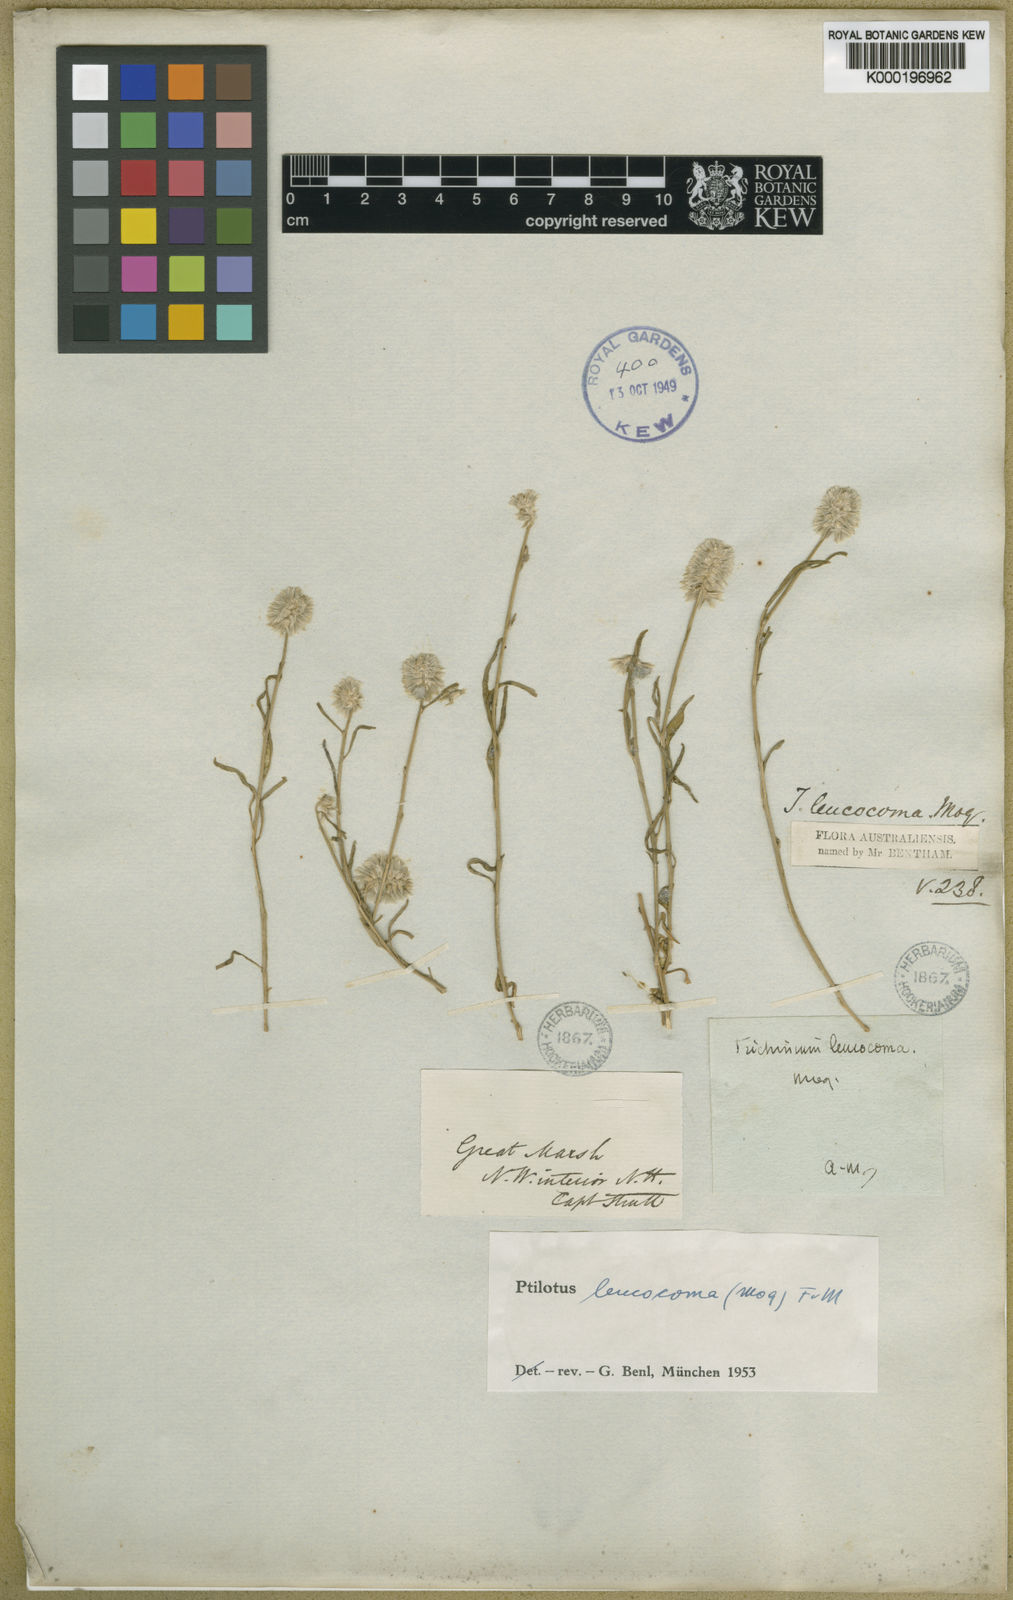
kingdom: Plantae
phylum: Tracheophyta
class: Magnoliopsida
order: Caryophyllales
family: Amaranthaceae
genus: Ptilotus
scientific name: Ptilotus leucocoma
